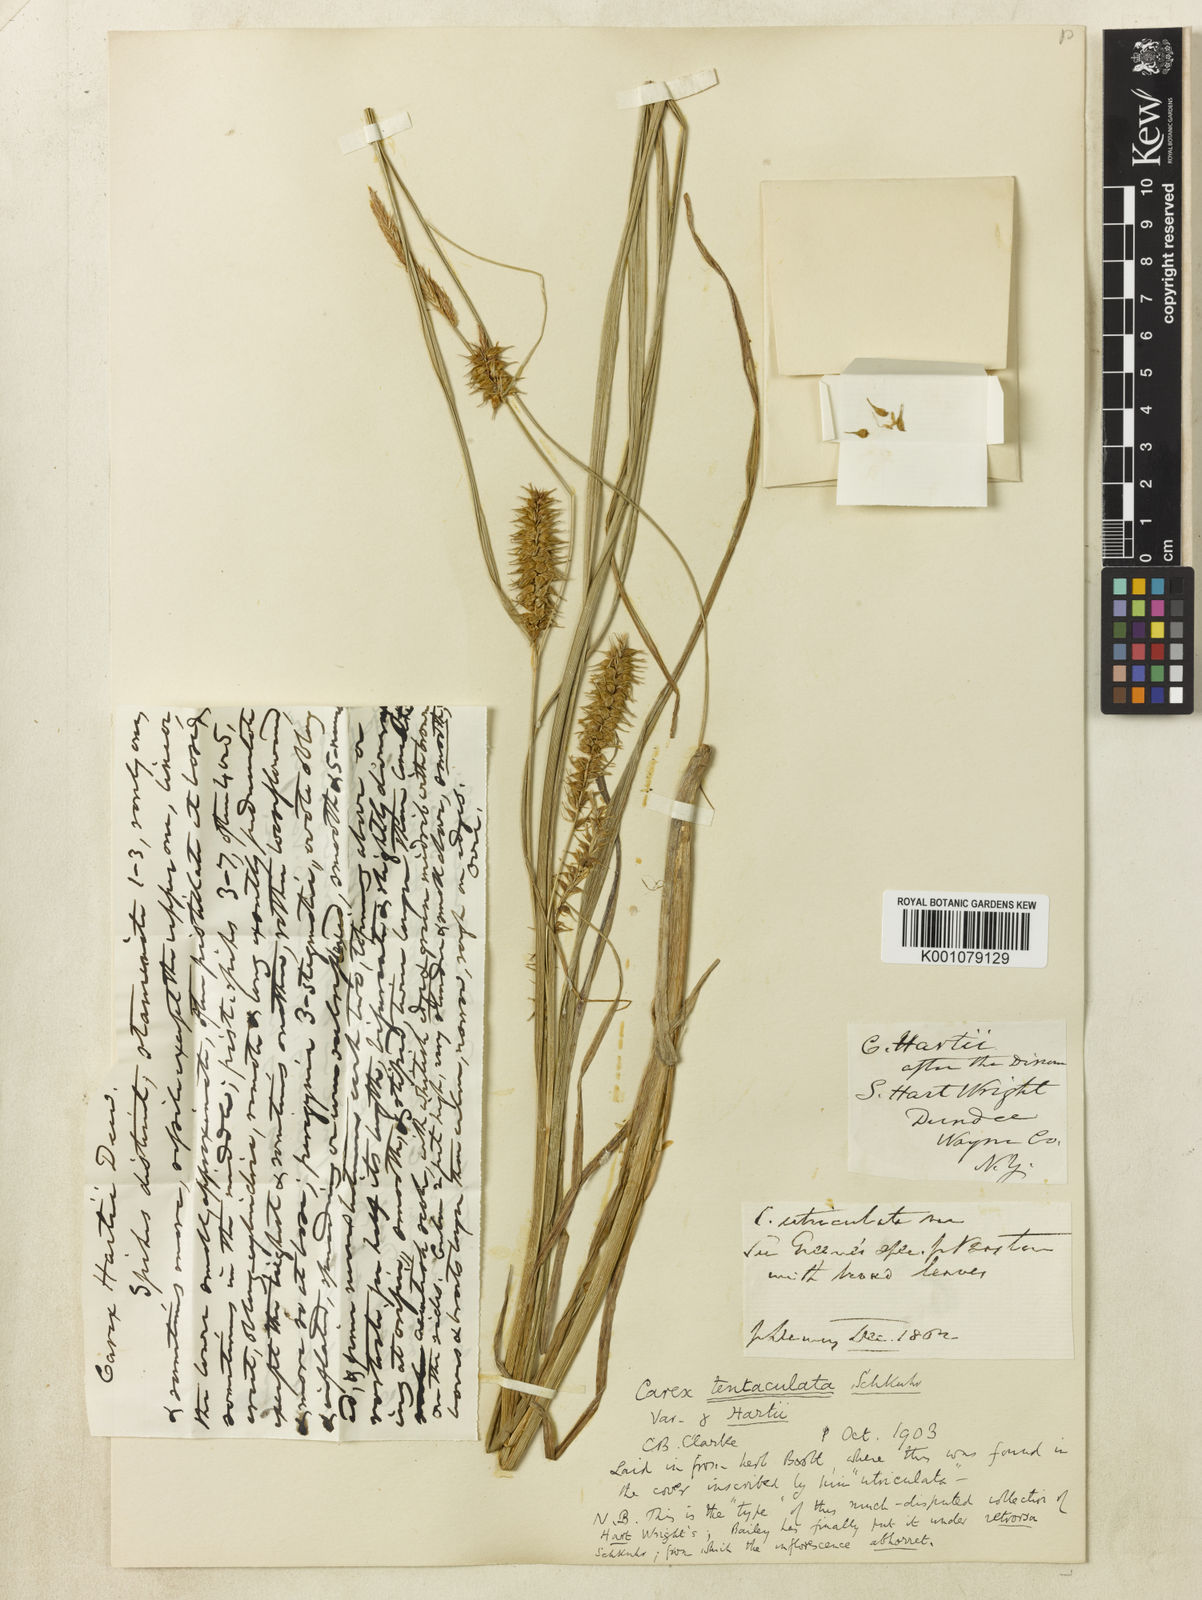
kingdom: Plantae
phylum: Tracheophyta
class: Liliopsida
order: Poales
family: Cyperaceae
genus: Carex
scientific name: Carex retrorsa
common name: Knot-sheath sedge
